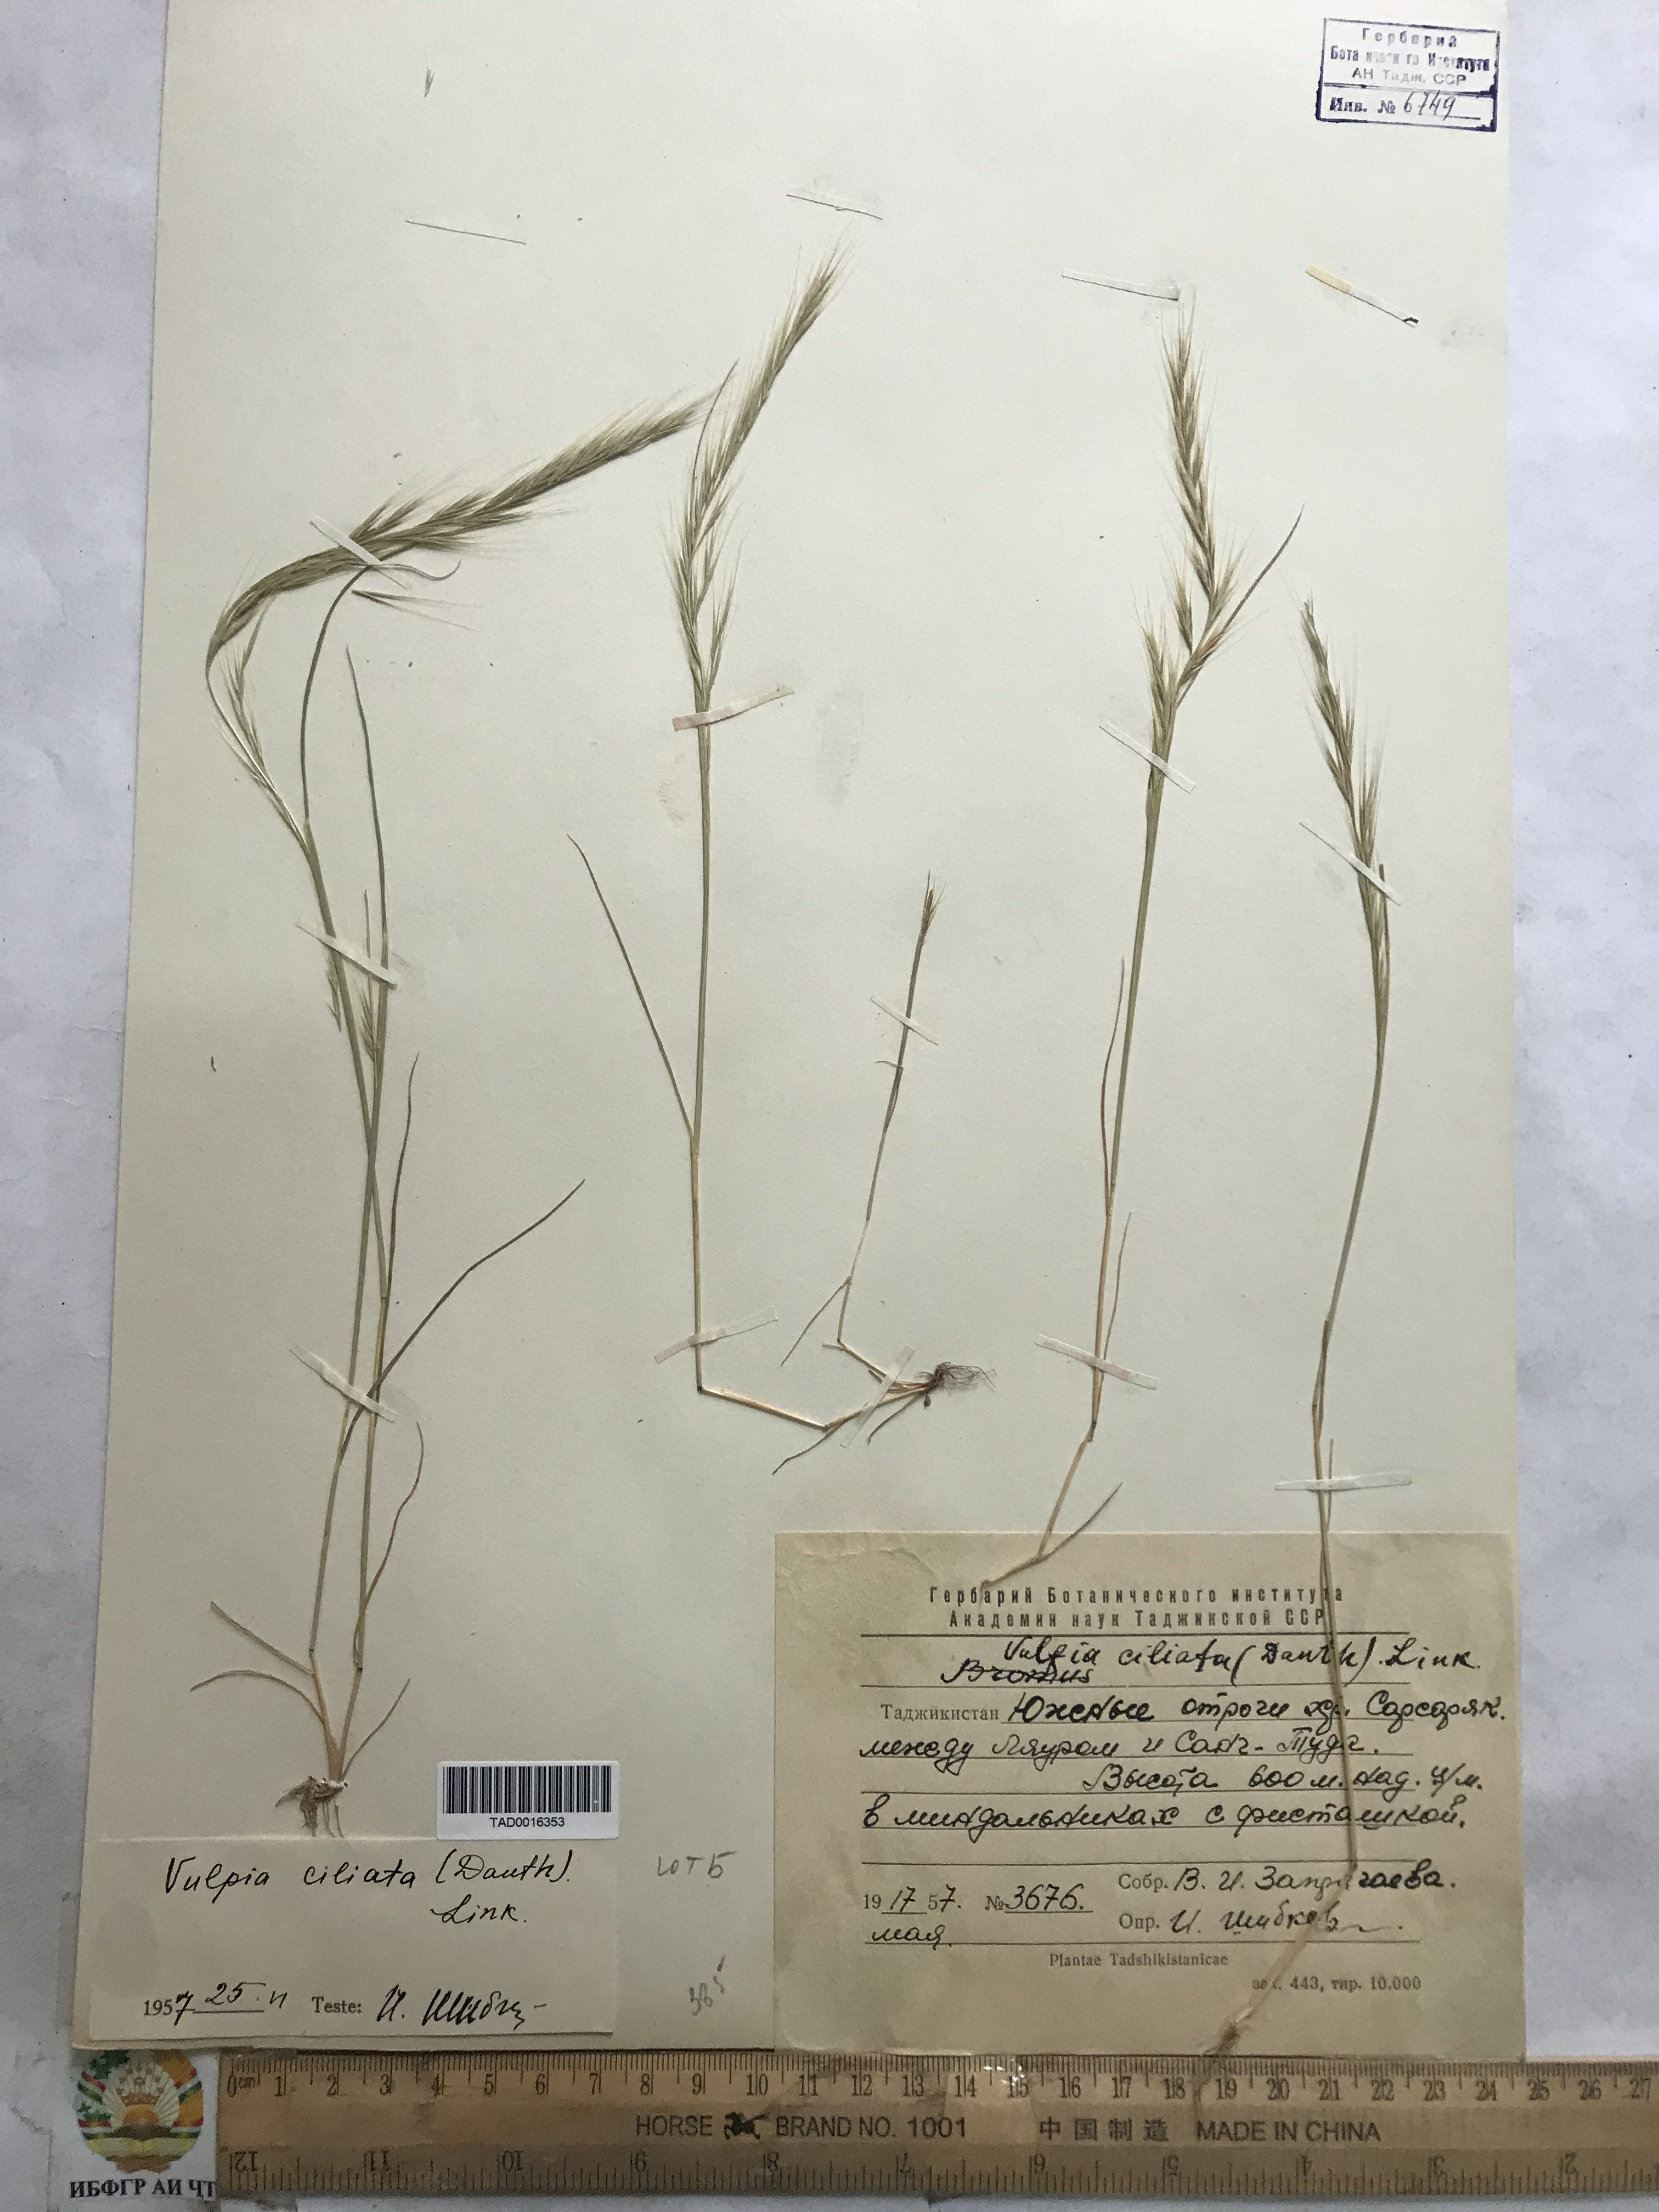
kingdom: Plantae
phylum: Tracheophyta
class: Liliopsida
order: Poales
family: Poaceae
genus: Festuca
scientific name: Festuca ambigua
